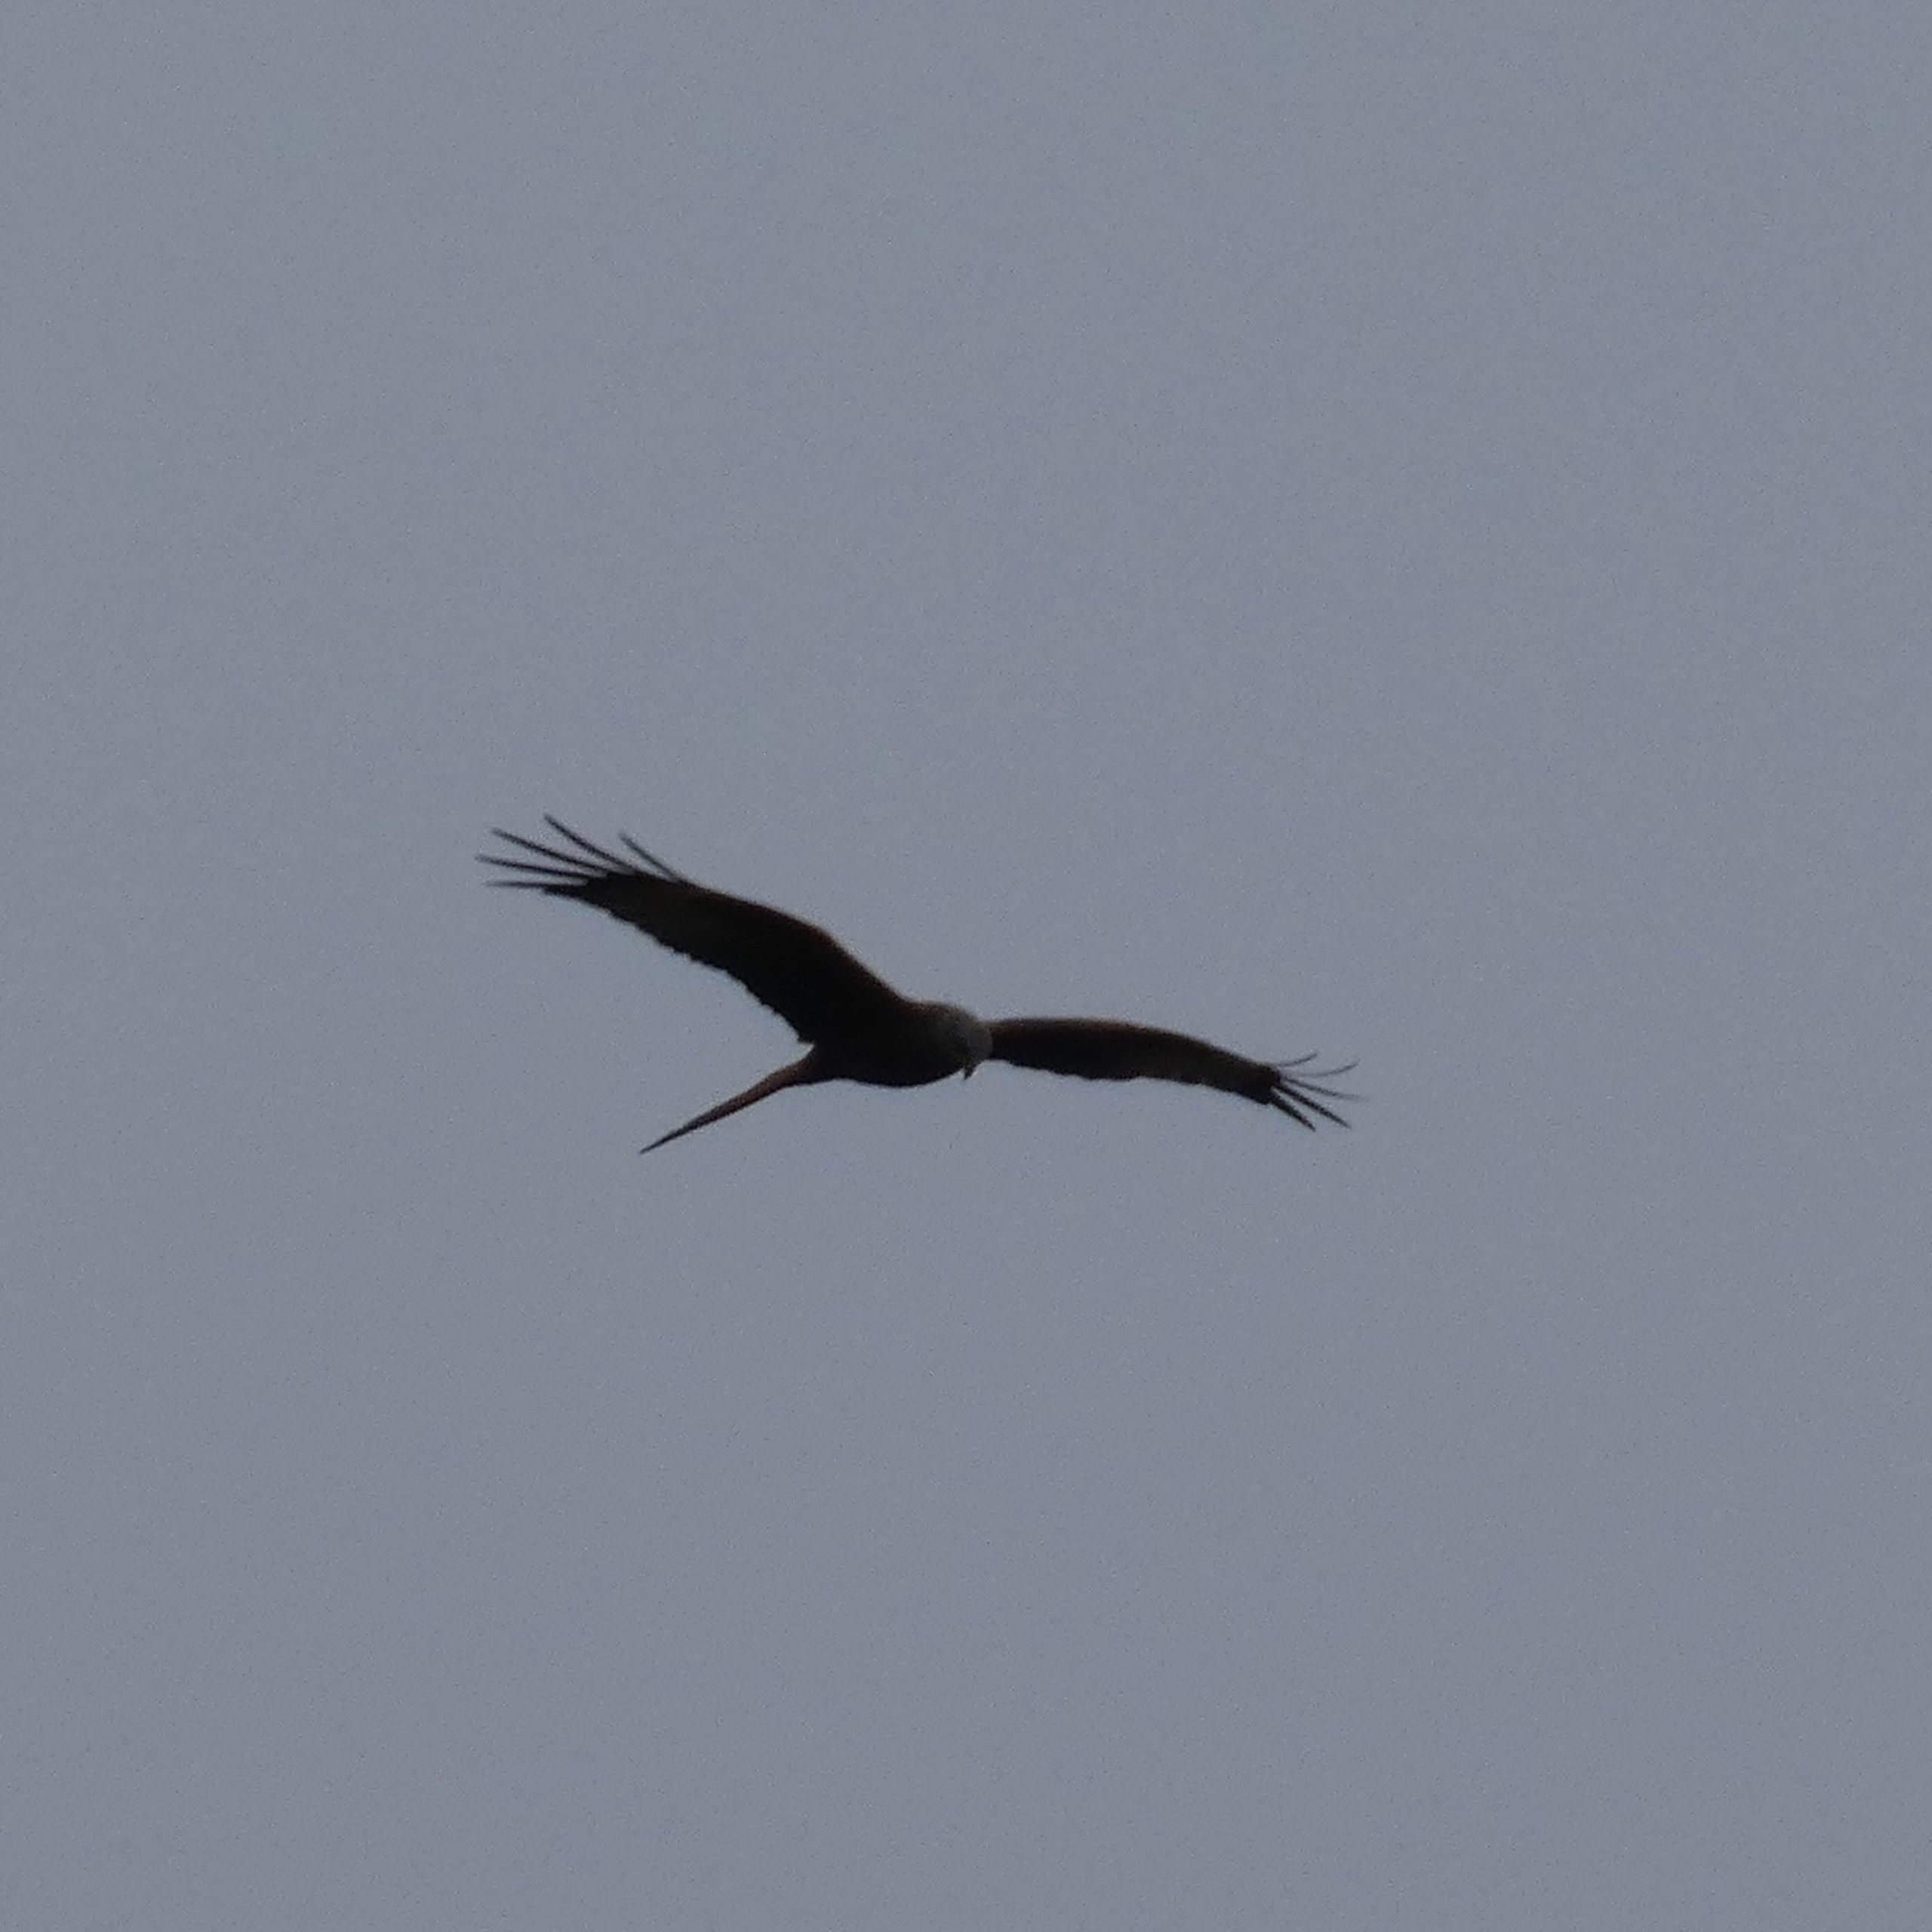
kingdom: Animalia
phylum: Chordata
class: Aves
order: Accipitriformes
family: Accipitridae
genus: Milvus
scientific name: Milvus milvus
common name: Rød glente
